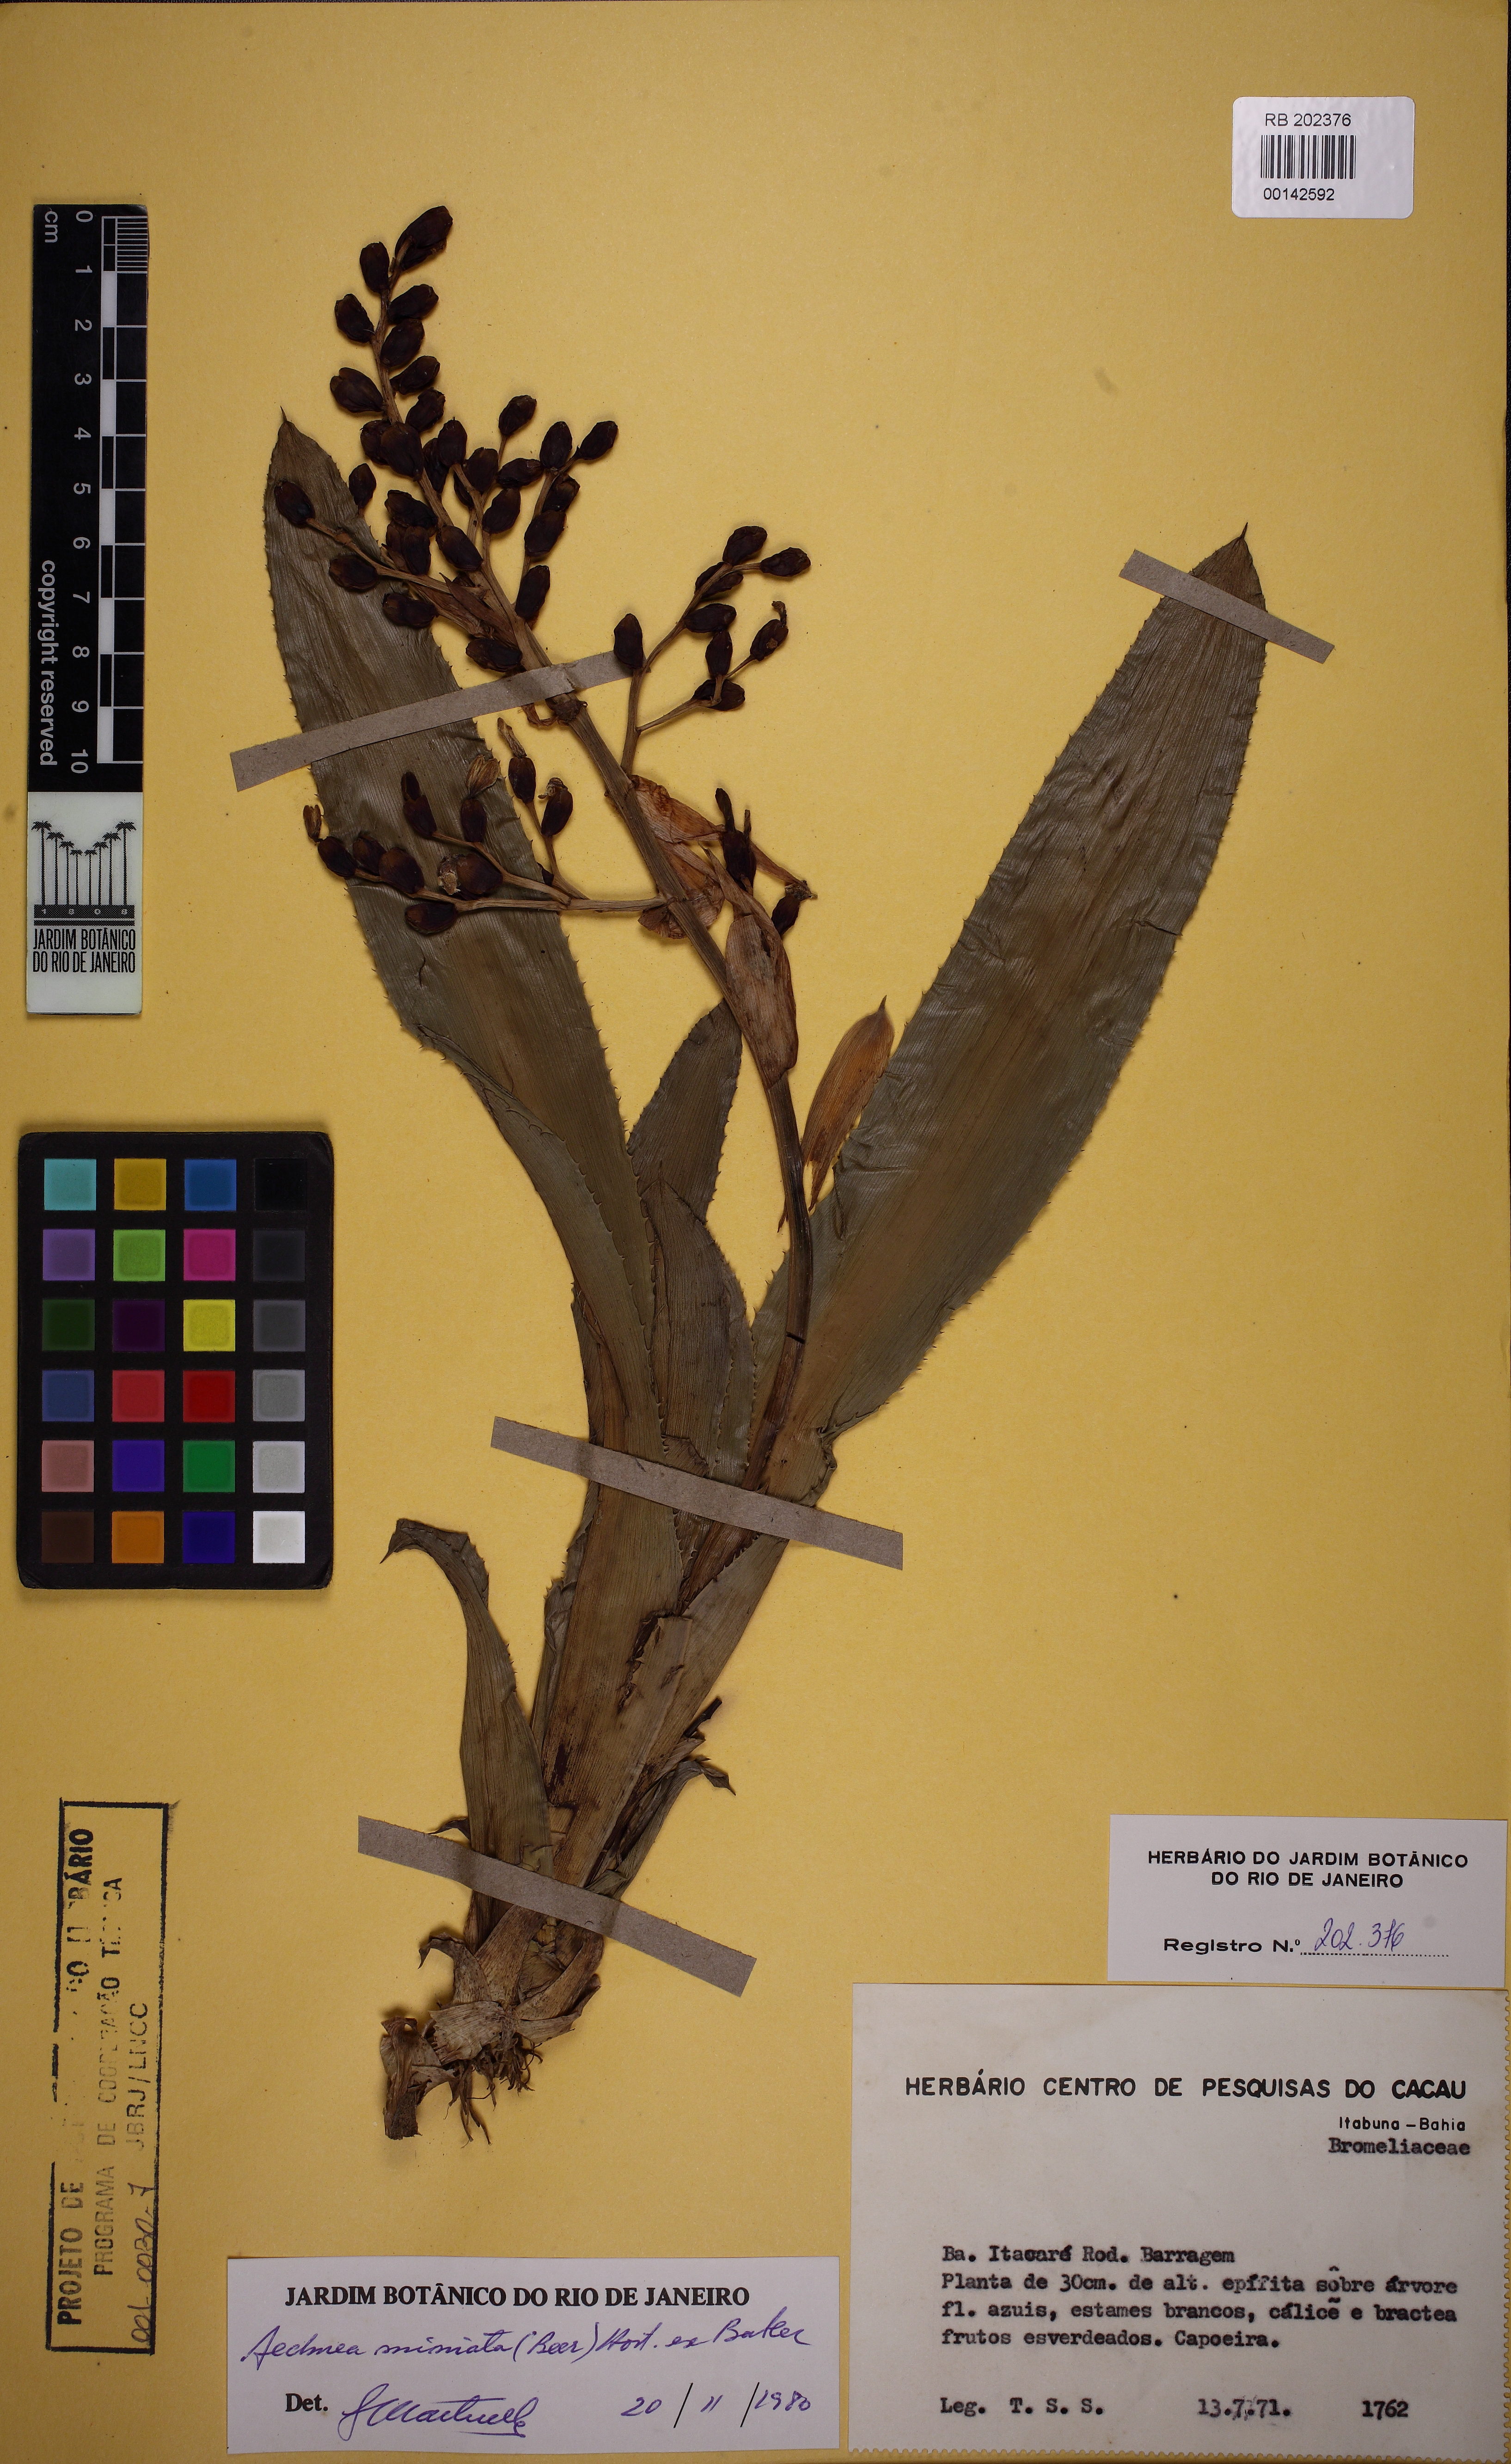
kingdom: Plantae
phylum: Tracheophyta
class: Liliopsida
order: Poales
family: Bromeliaceae
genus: Aechmea
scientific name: Aechmea miniata
